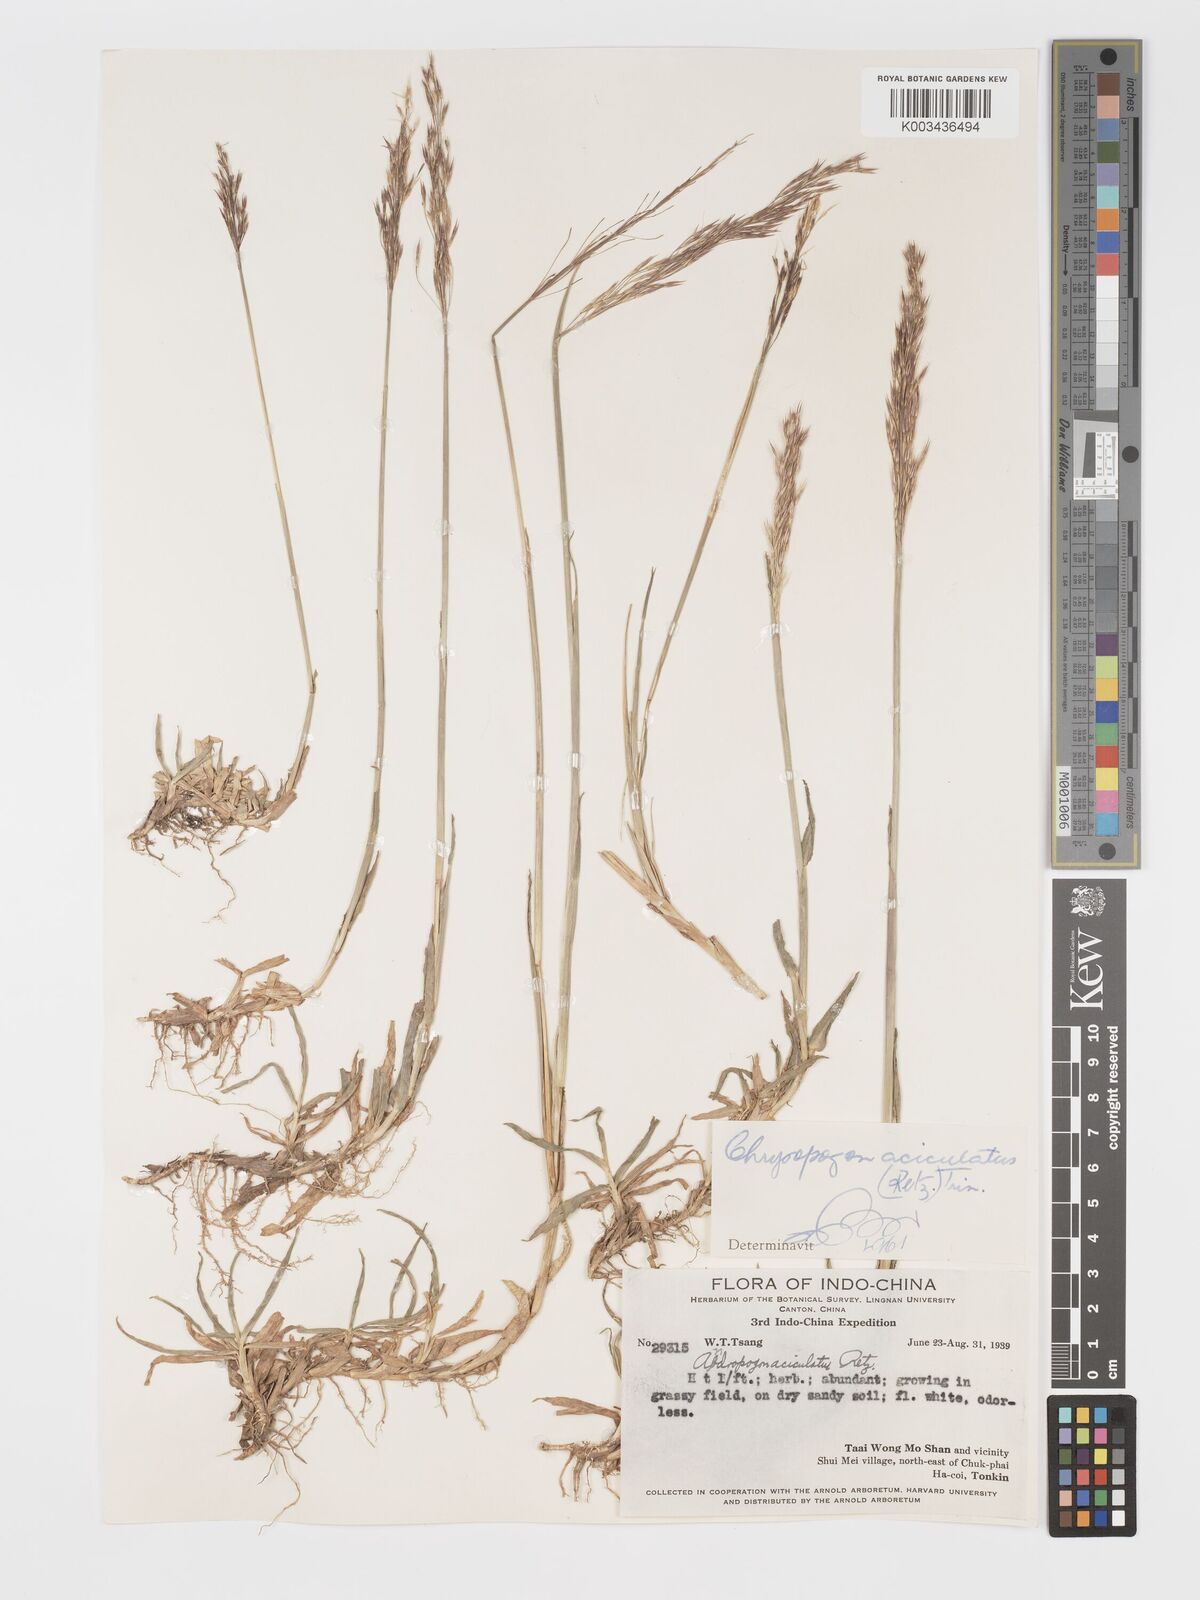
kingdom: Plantae
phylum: Tracheophyta
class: Liliopsida
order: Poales
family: Poaceae
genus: Chrysopogon
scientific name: Chrysopogon aciculatus
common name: Pilipiliula
